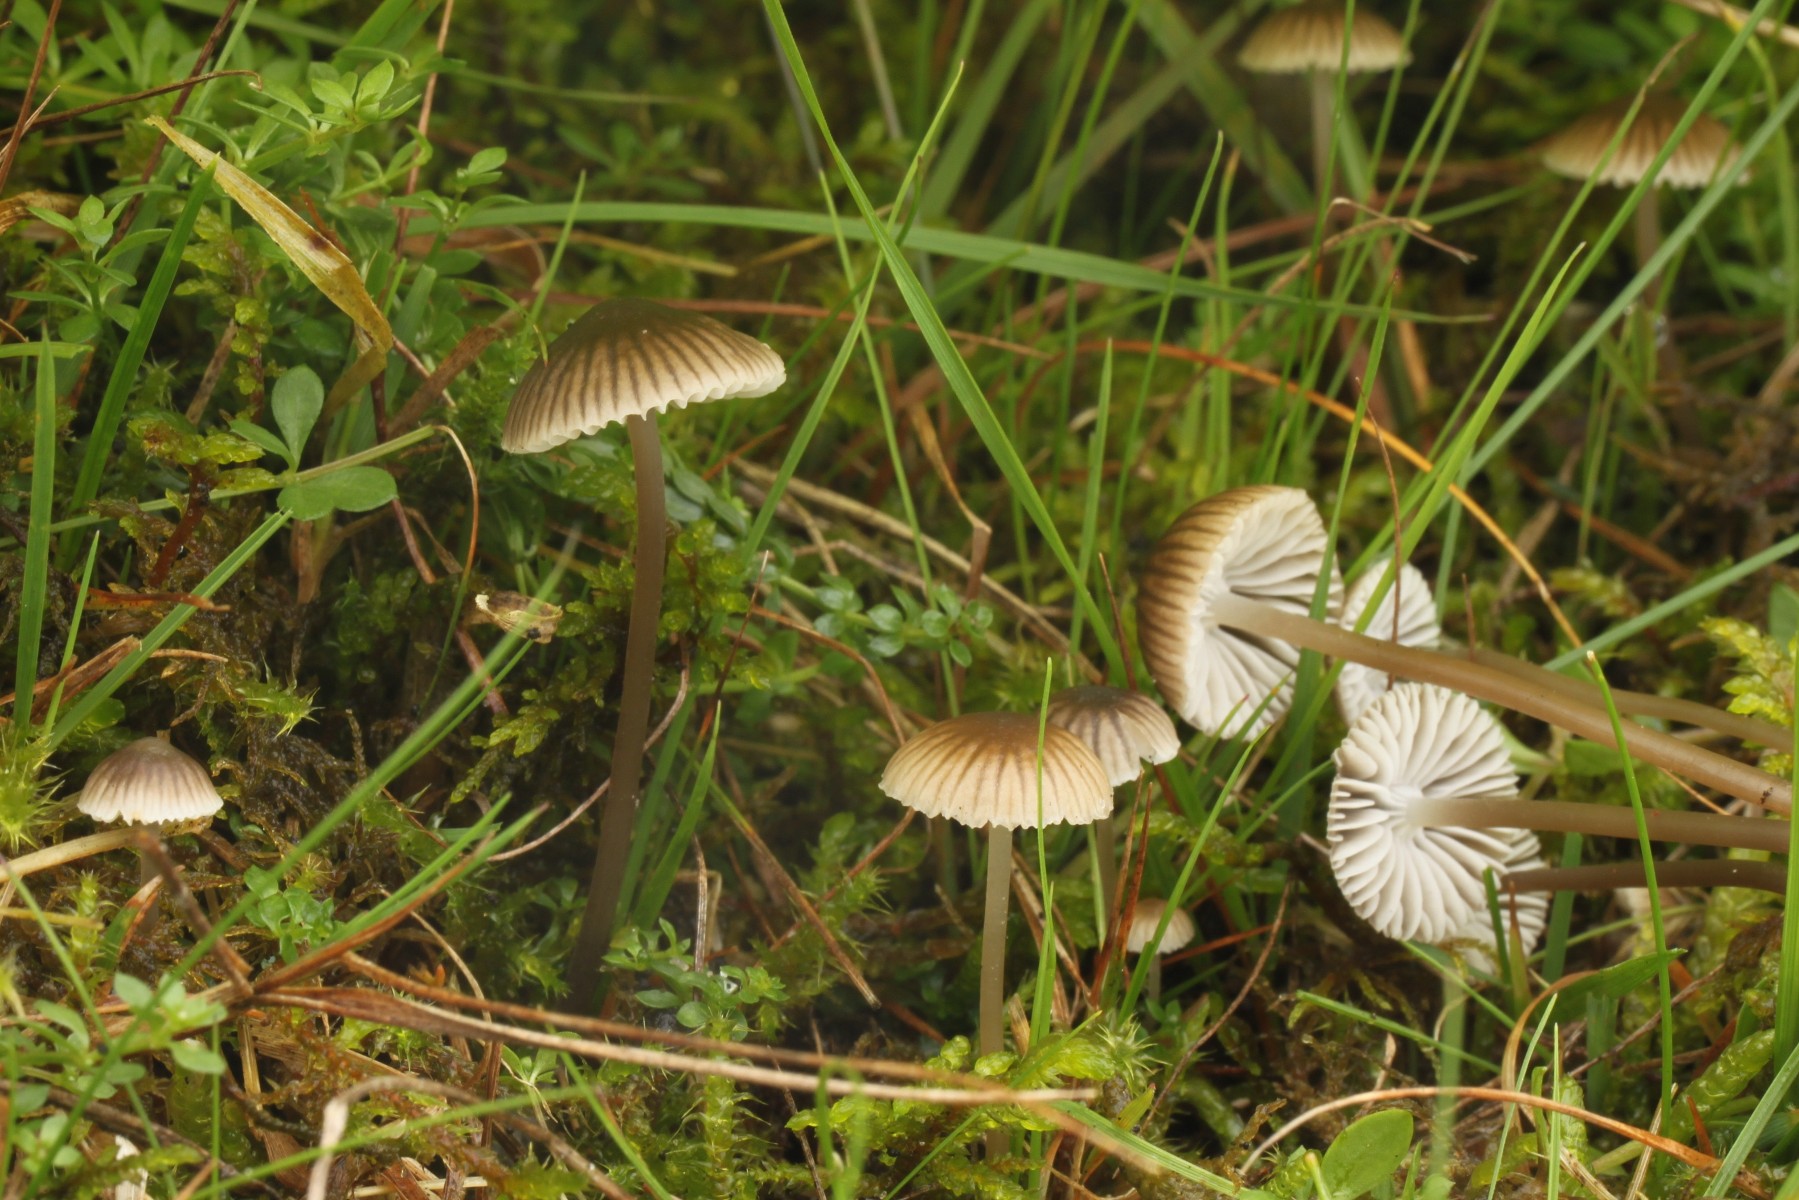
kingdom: Fungi
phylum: Basidiomycota
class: Agaricomycetes
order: Agaricales
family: Mycenaceae
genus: Mycena
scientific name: Mycena
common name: huesvamp
